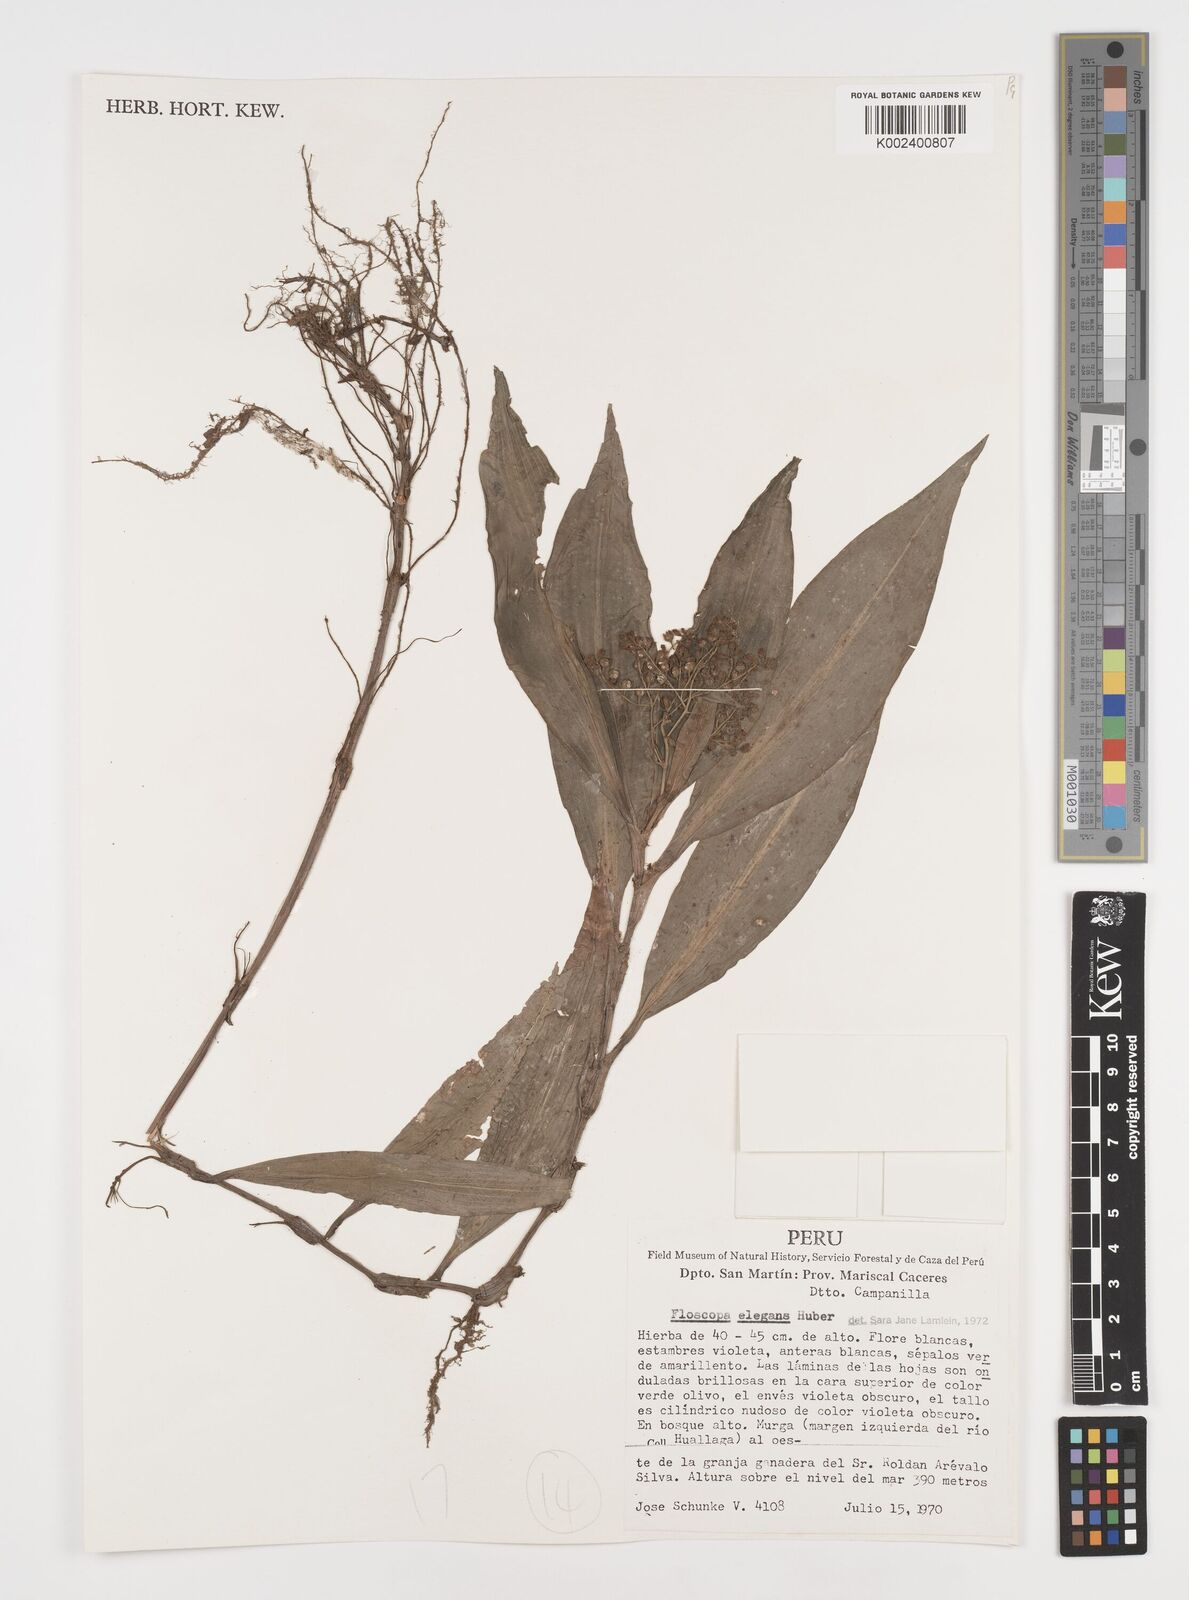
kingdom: Plantae
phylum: Tracheophyta
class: Liliopsida
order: Commelinales
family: Commelinaceae
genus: Floscopa
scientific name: Floscopa elegans
